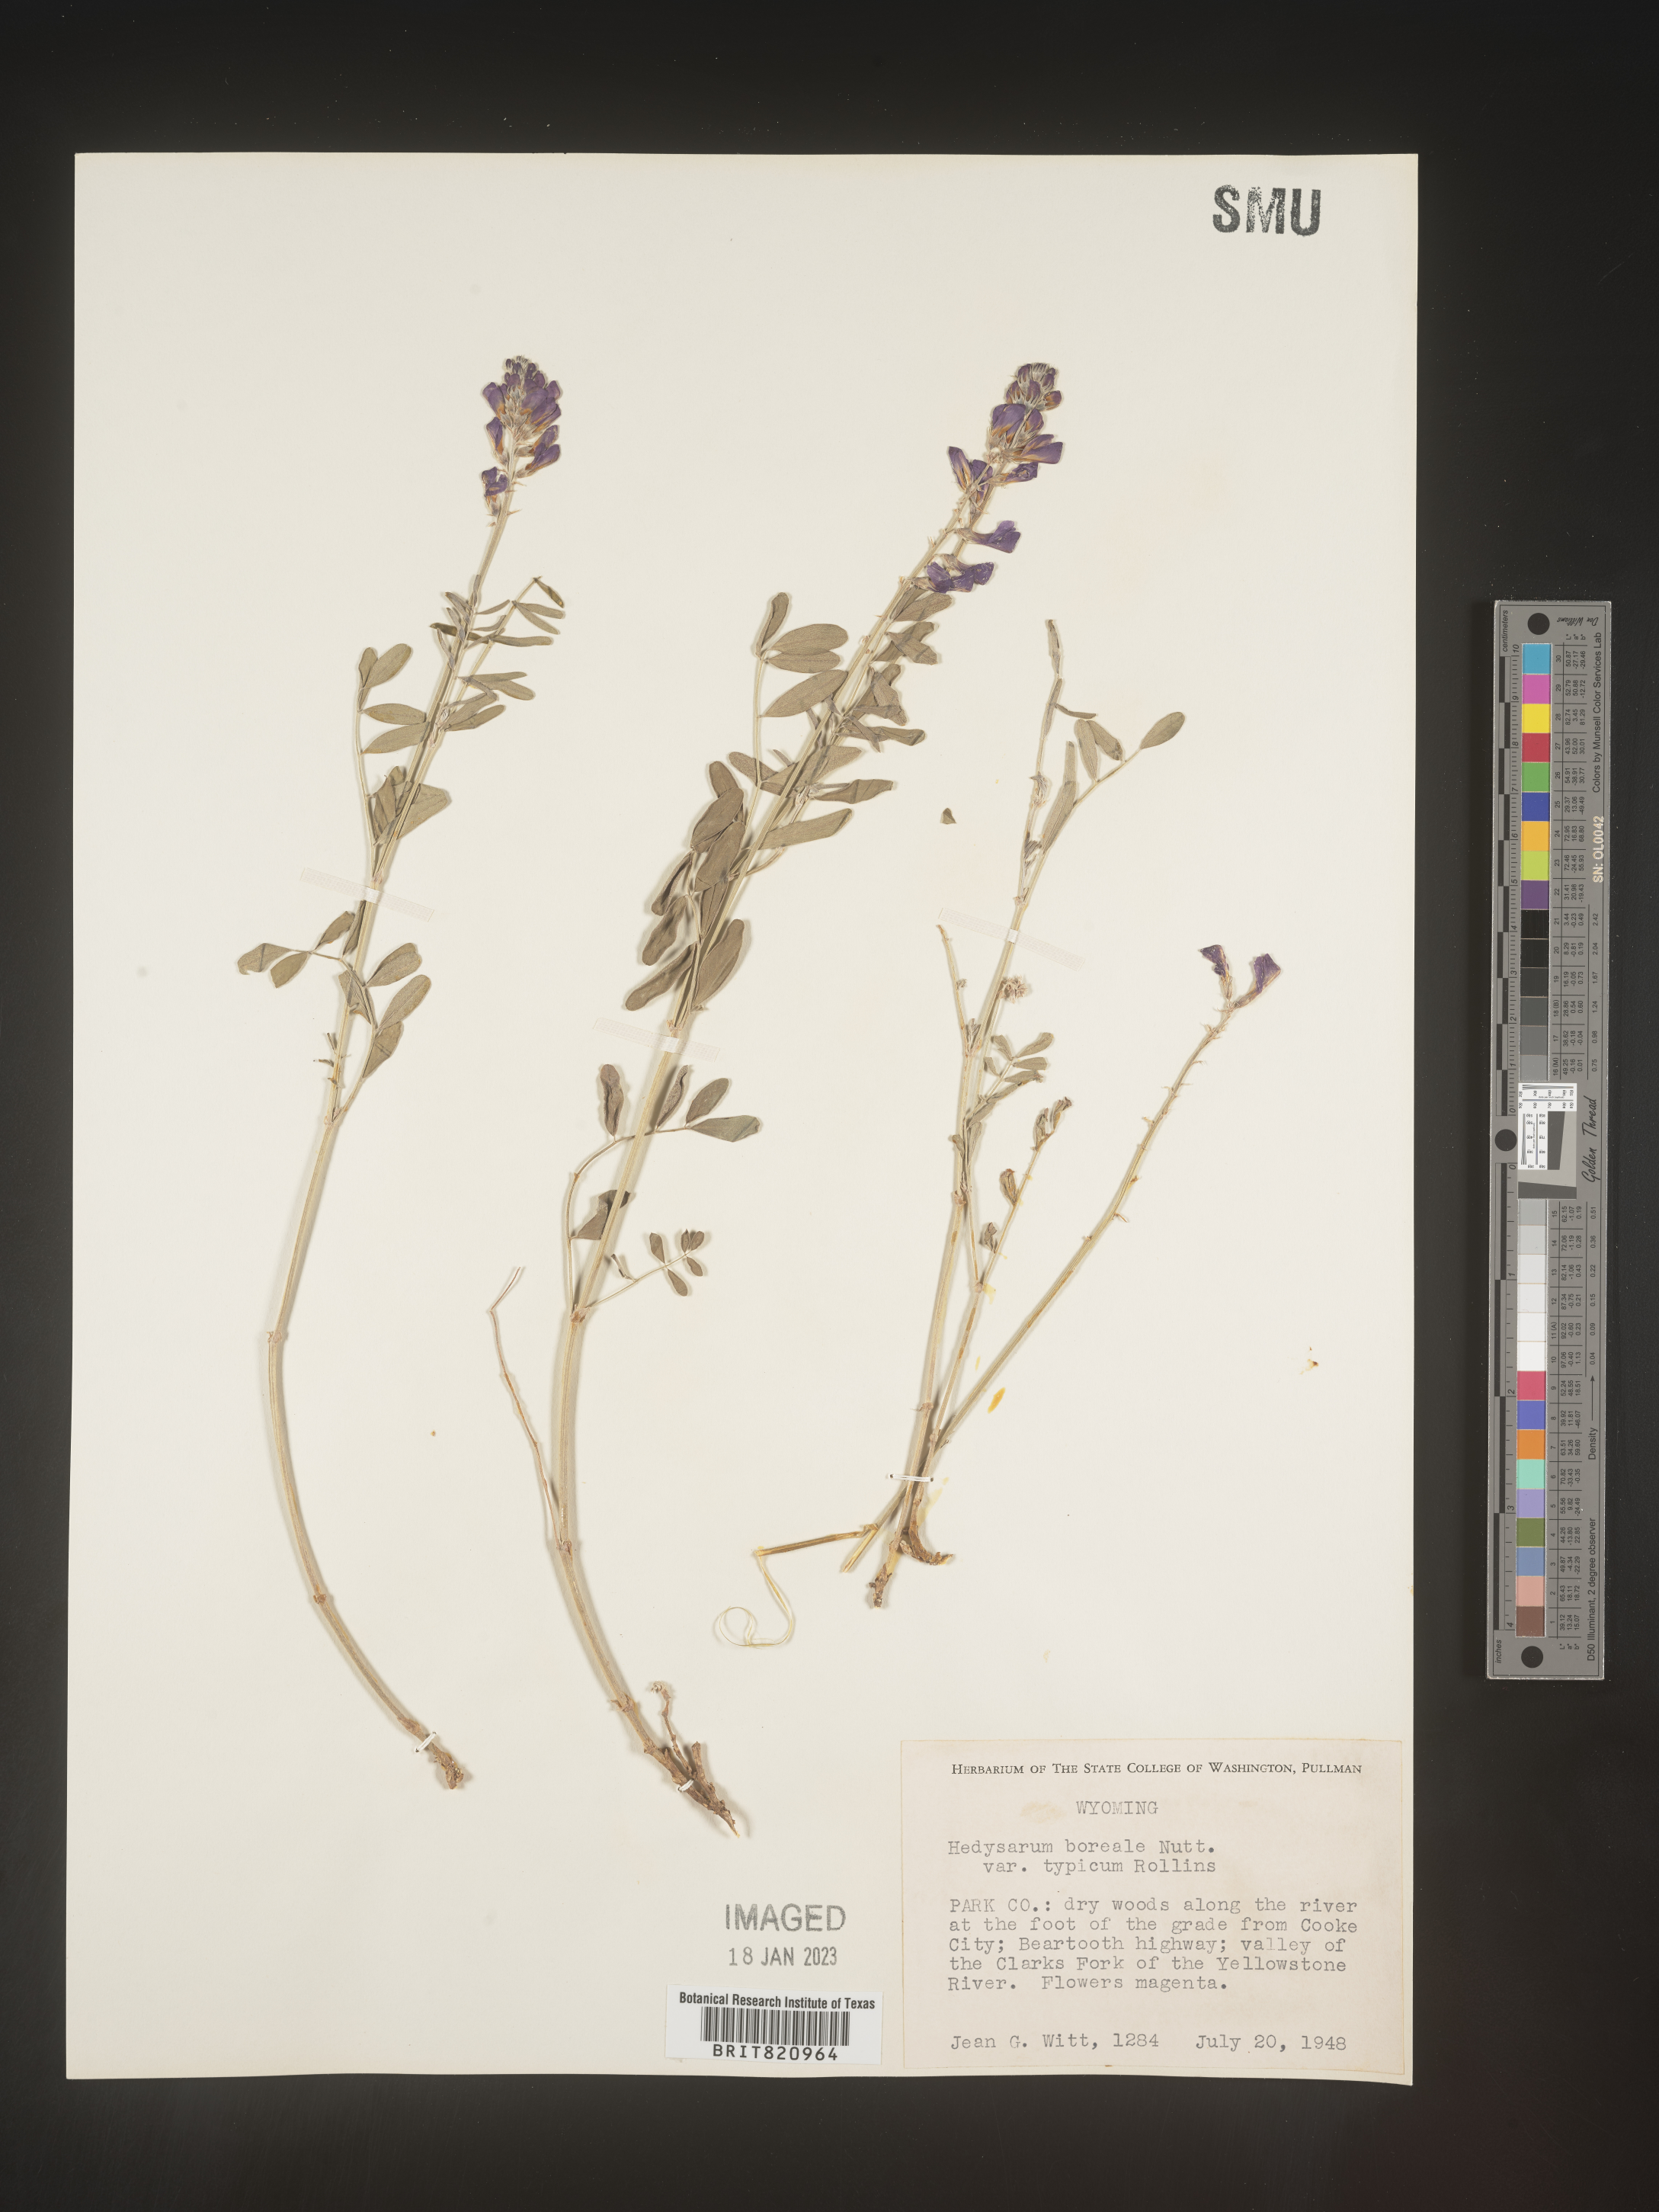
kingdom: Plantae
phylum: Tracheophyta
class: Magnoliopsida
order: Fabales
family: Fabaceae
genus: Hedysarum
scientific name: Hedysarum boreale
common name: Northern sweet-vetch
